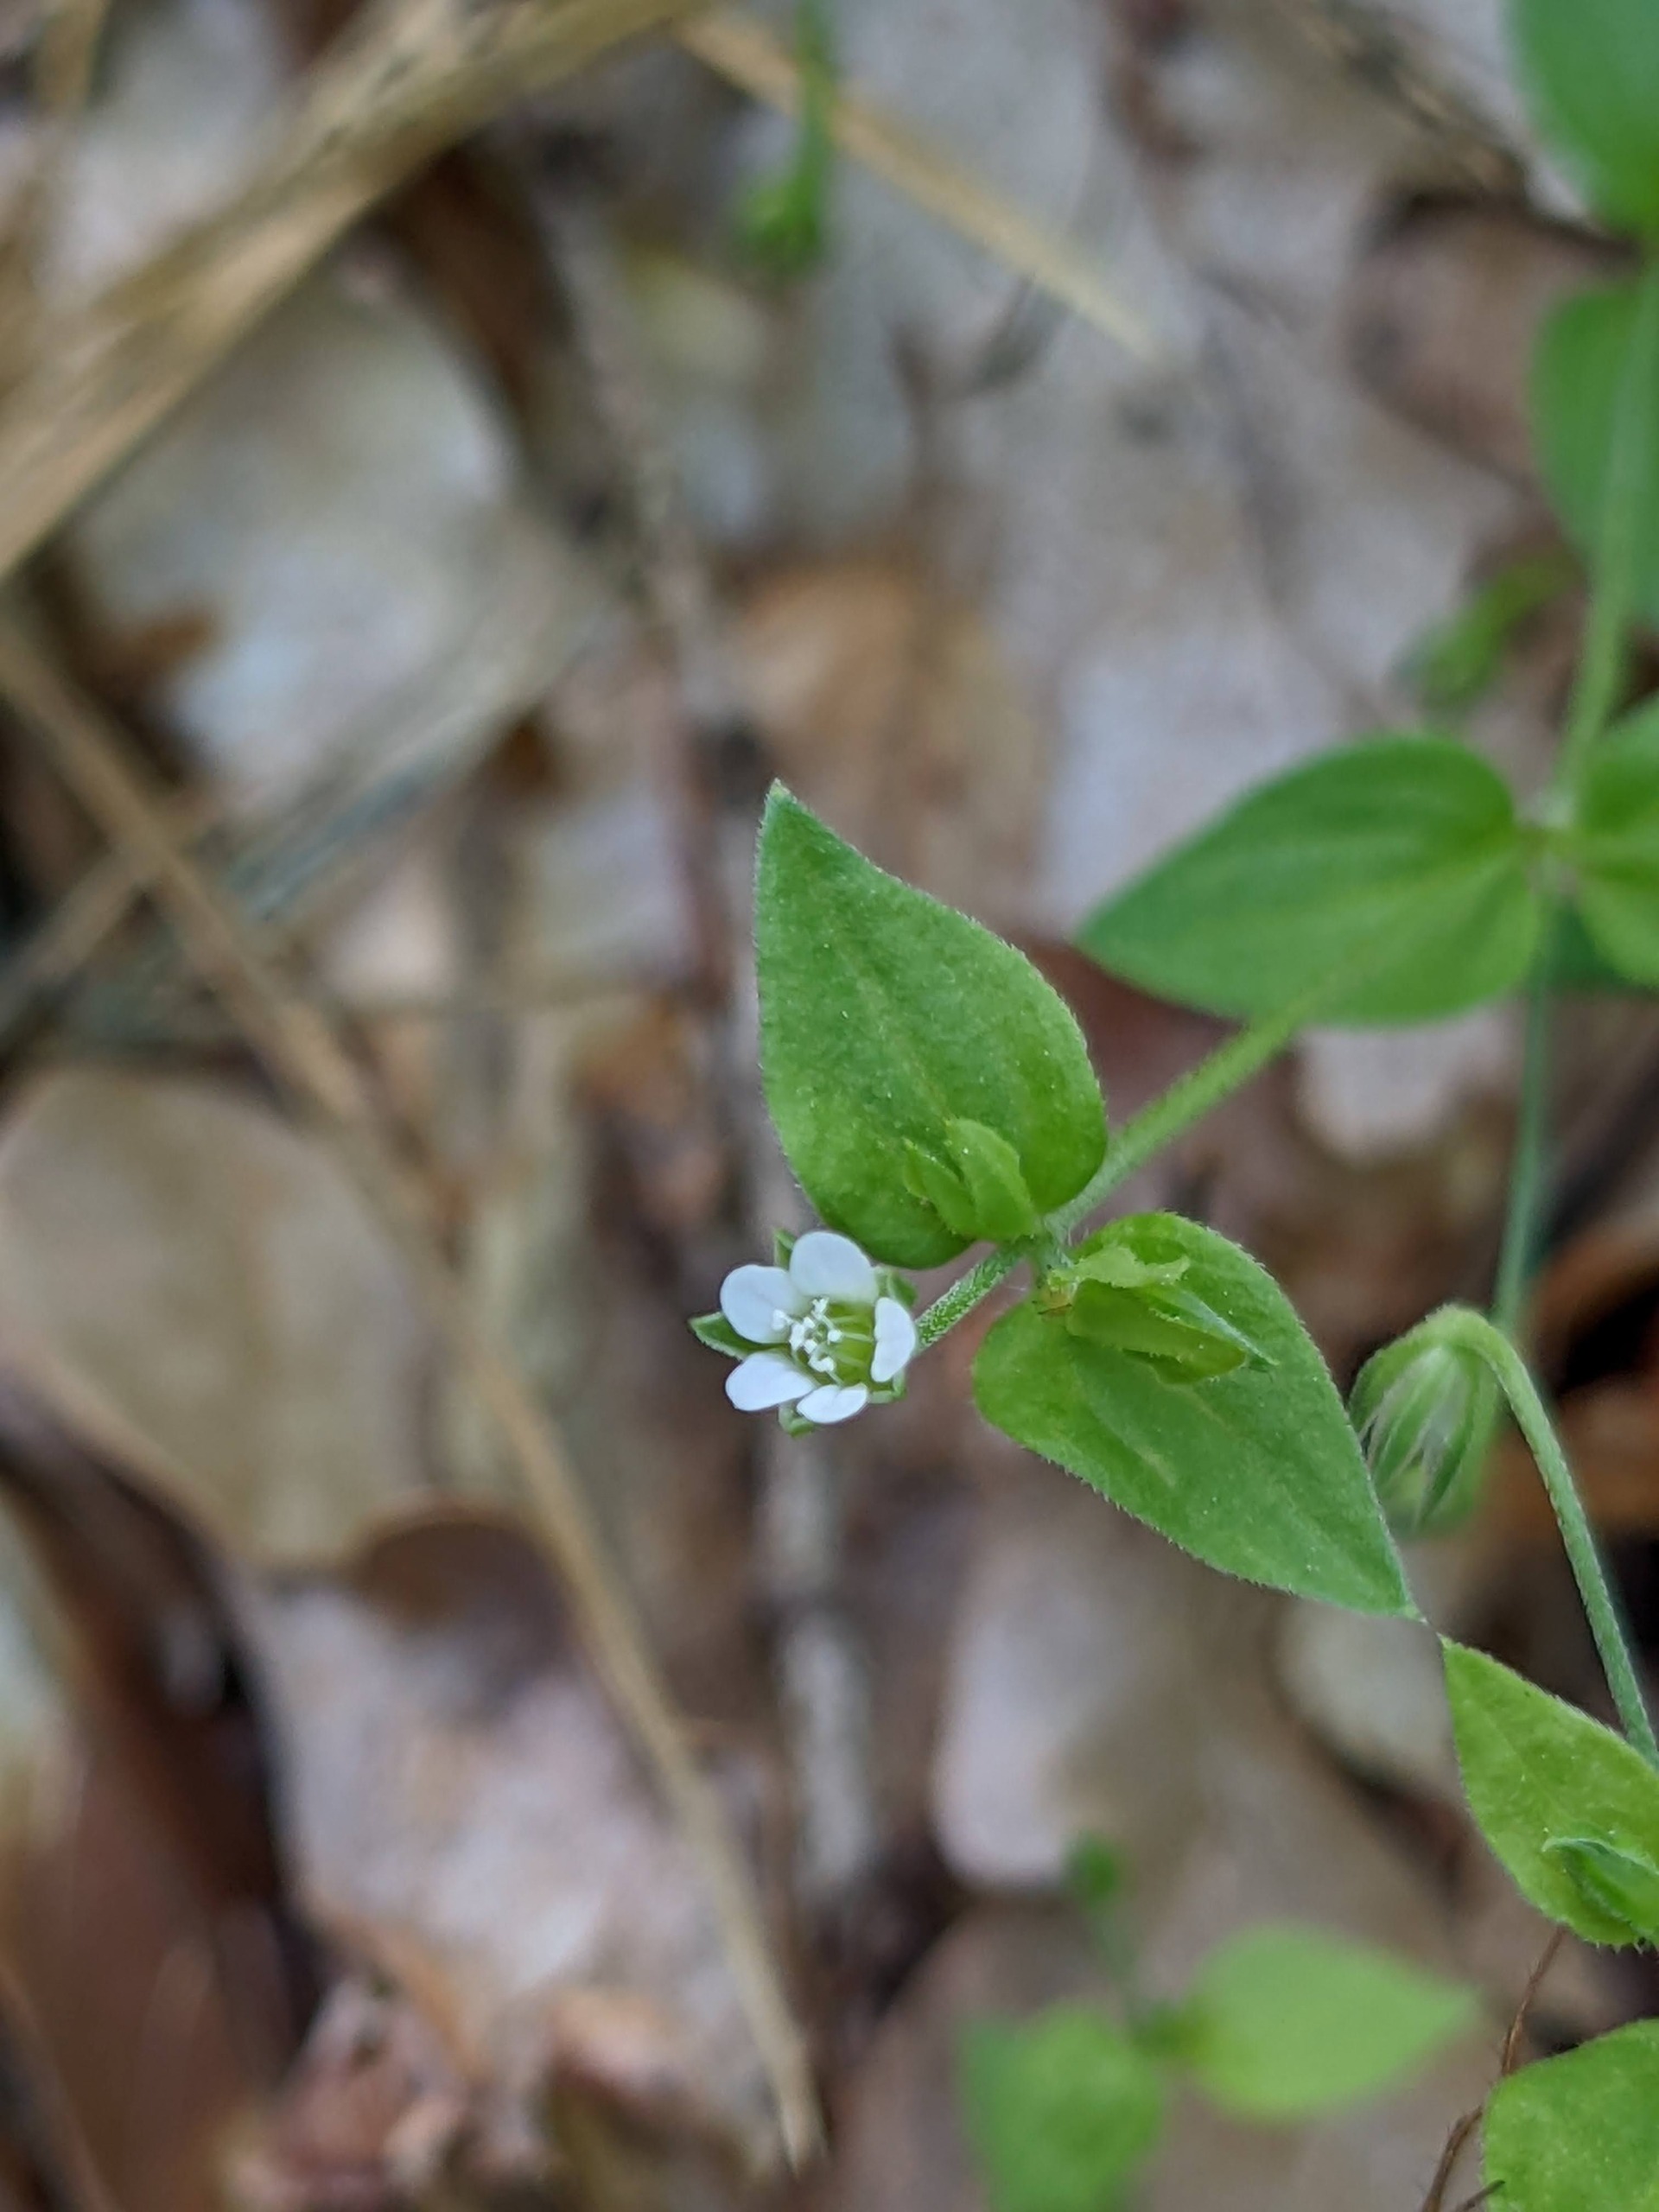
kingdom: Plantae
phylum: Tracheophyta
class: Magnoliopsida
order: Caryophyllales
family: Caryophyllaceae
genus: Moehringia
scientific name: Moehringia trinervia
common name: Skovarve
